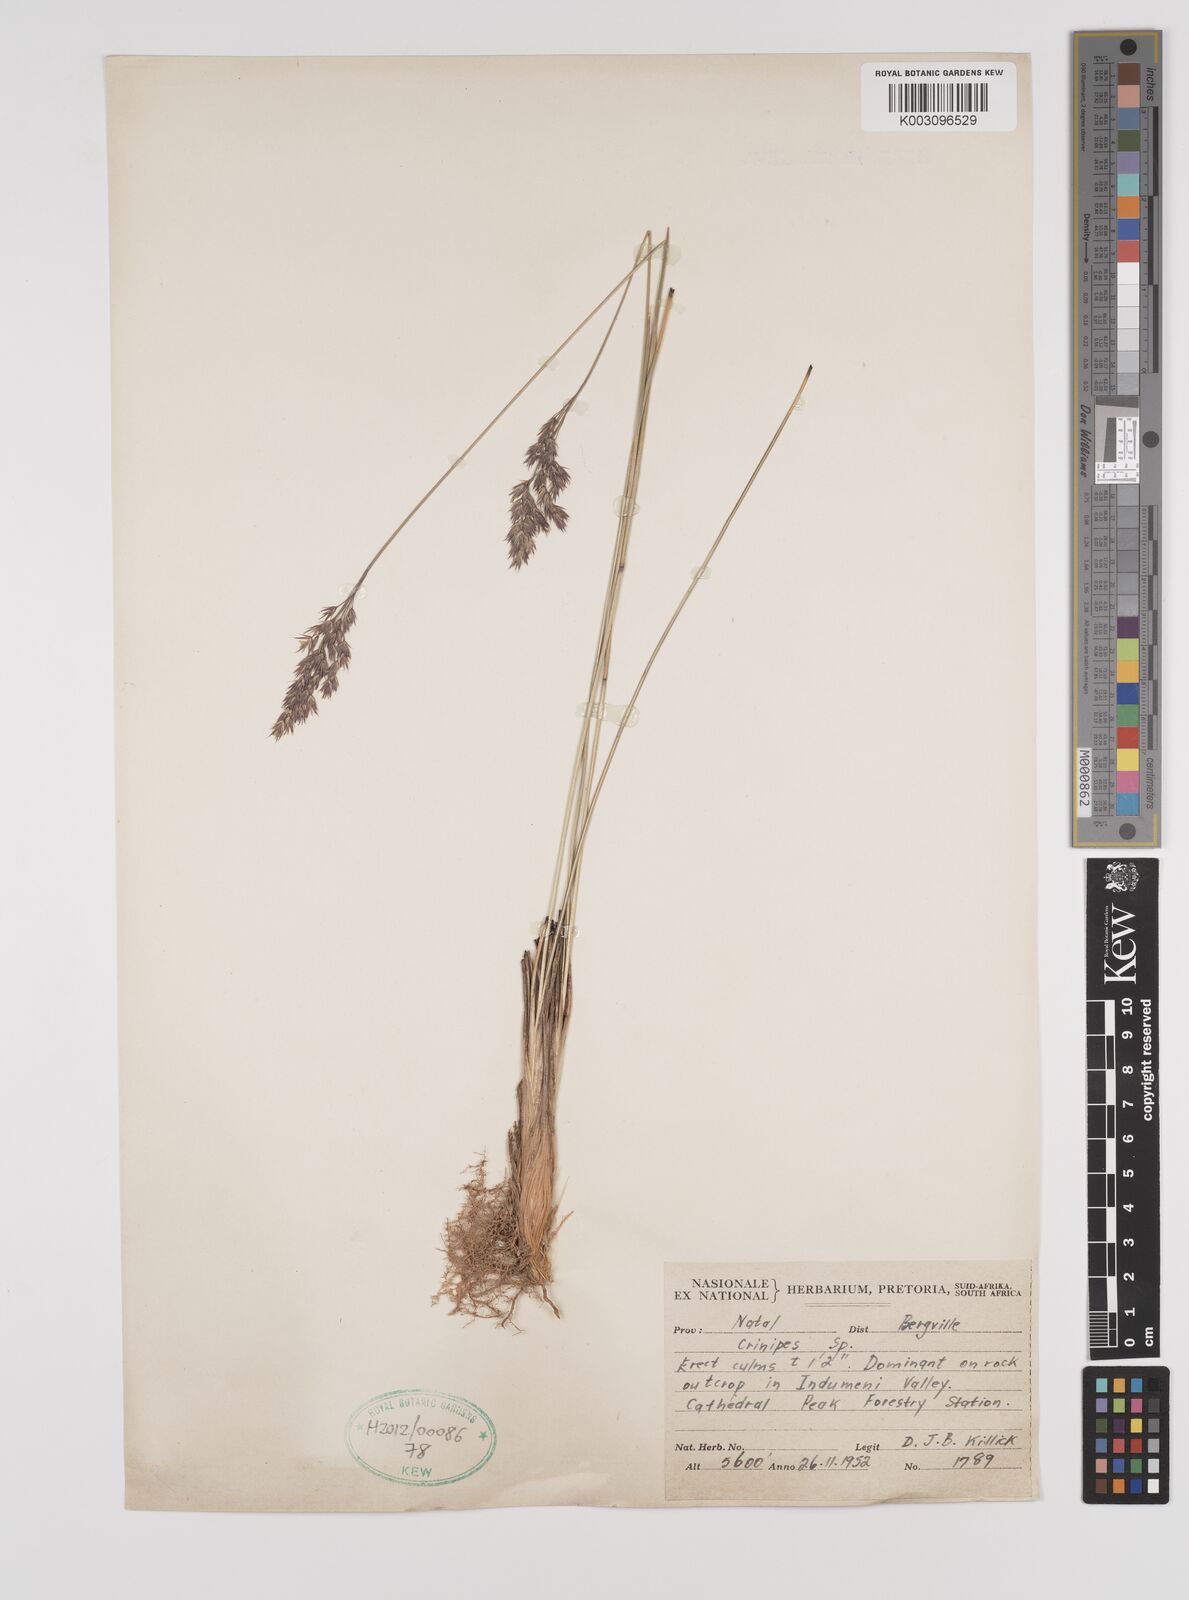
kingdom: Plantae
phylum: Tracheophyta
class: Liliopsida
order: Poales
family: Poaceae
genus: Styppeiochloa
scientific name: Styppeiochloa gynoglossa
